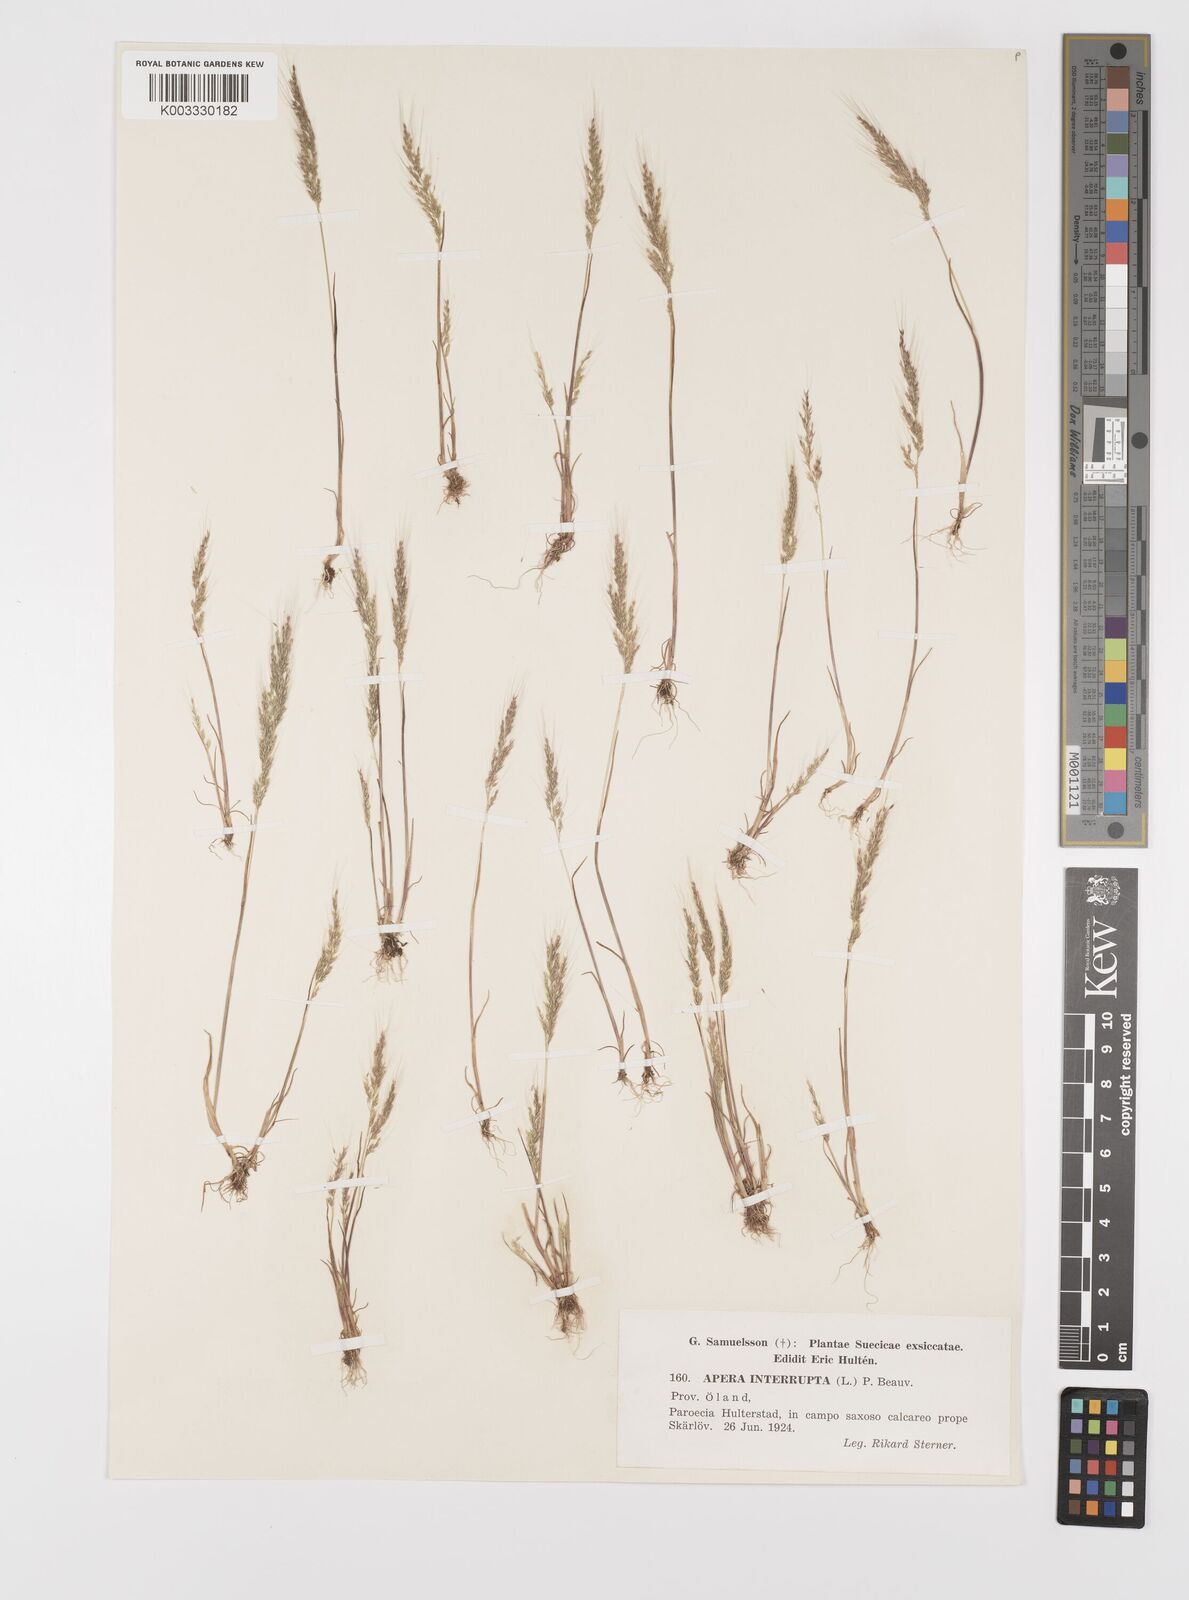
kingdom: Plantae
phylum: Tracheophyta
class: Liliopsida
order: Poales
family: Poaceae
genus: Apera
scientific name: Apera interrupta
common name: Dense silky-bent
